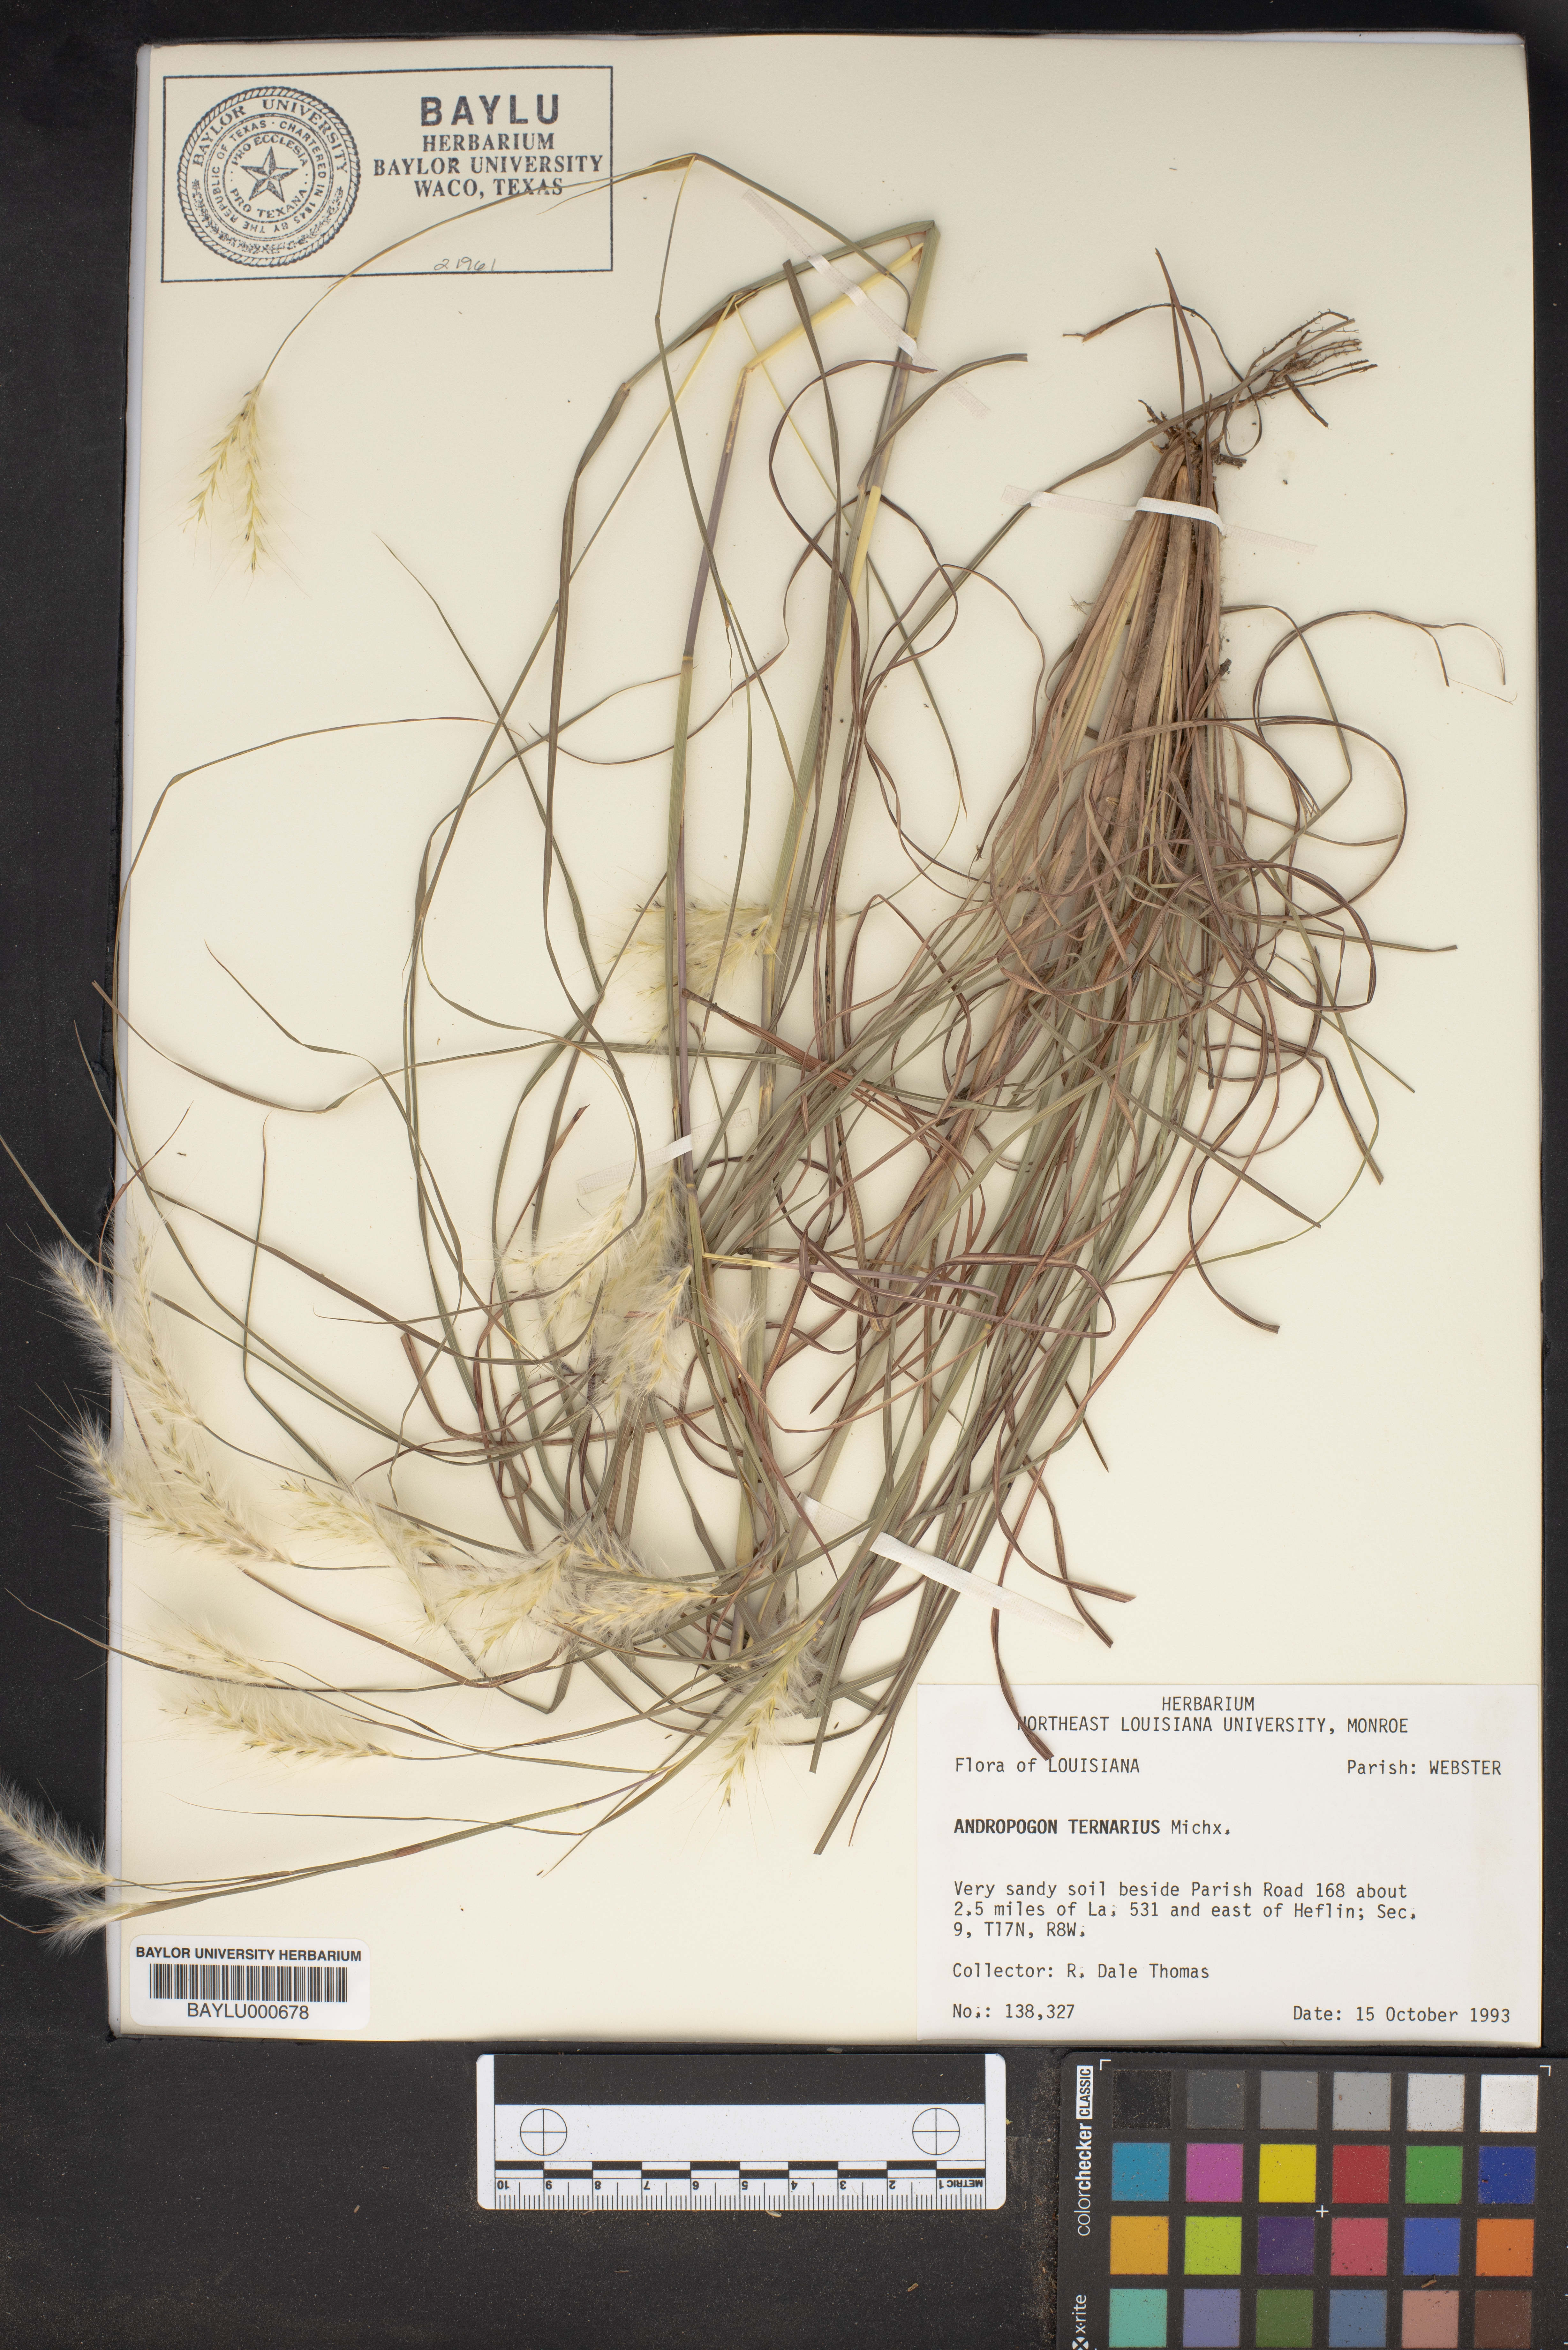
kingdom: Plantae
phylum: Tracheophyta
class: Liliopsida
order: Poales
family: Poaceae
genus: Andropogon
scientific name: Andropogon ternarius
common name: Split bluestem
